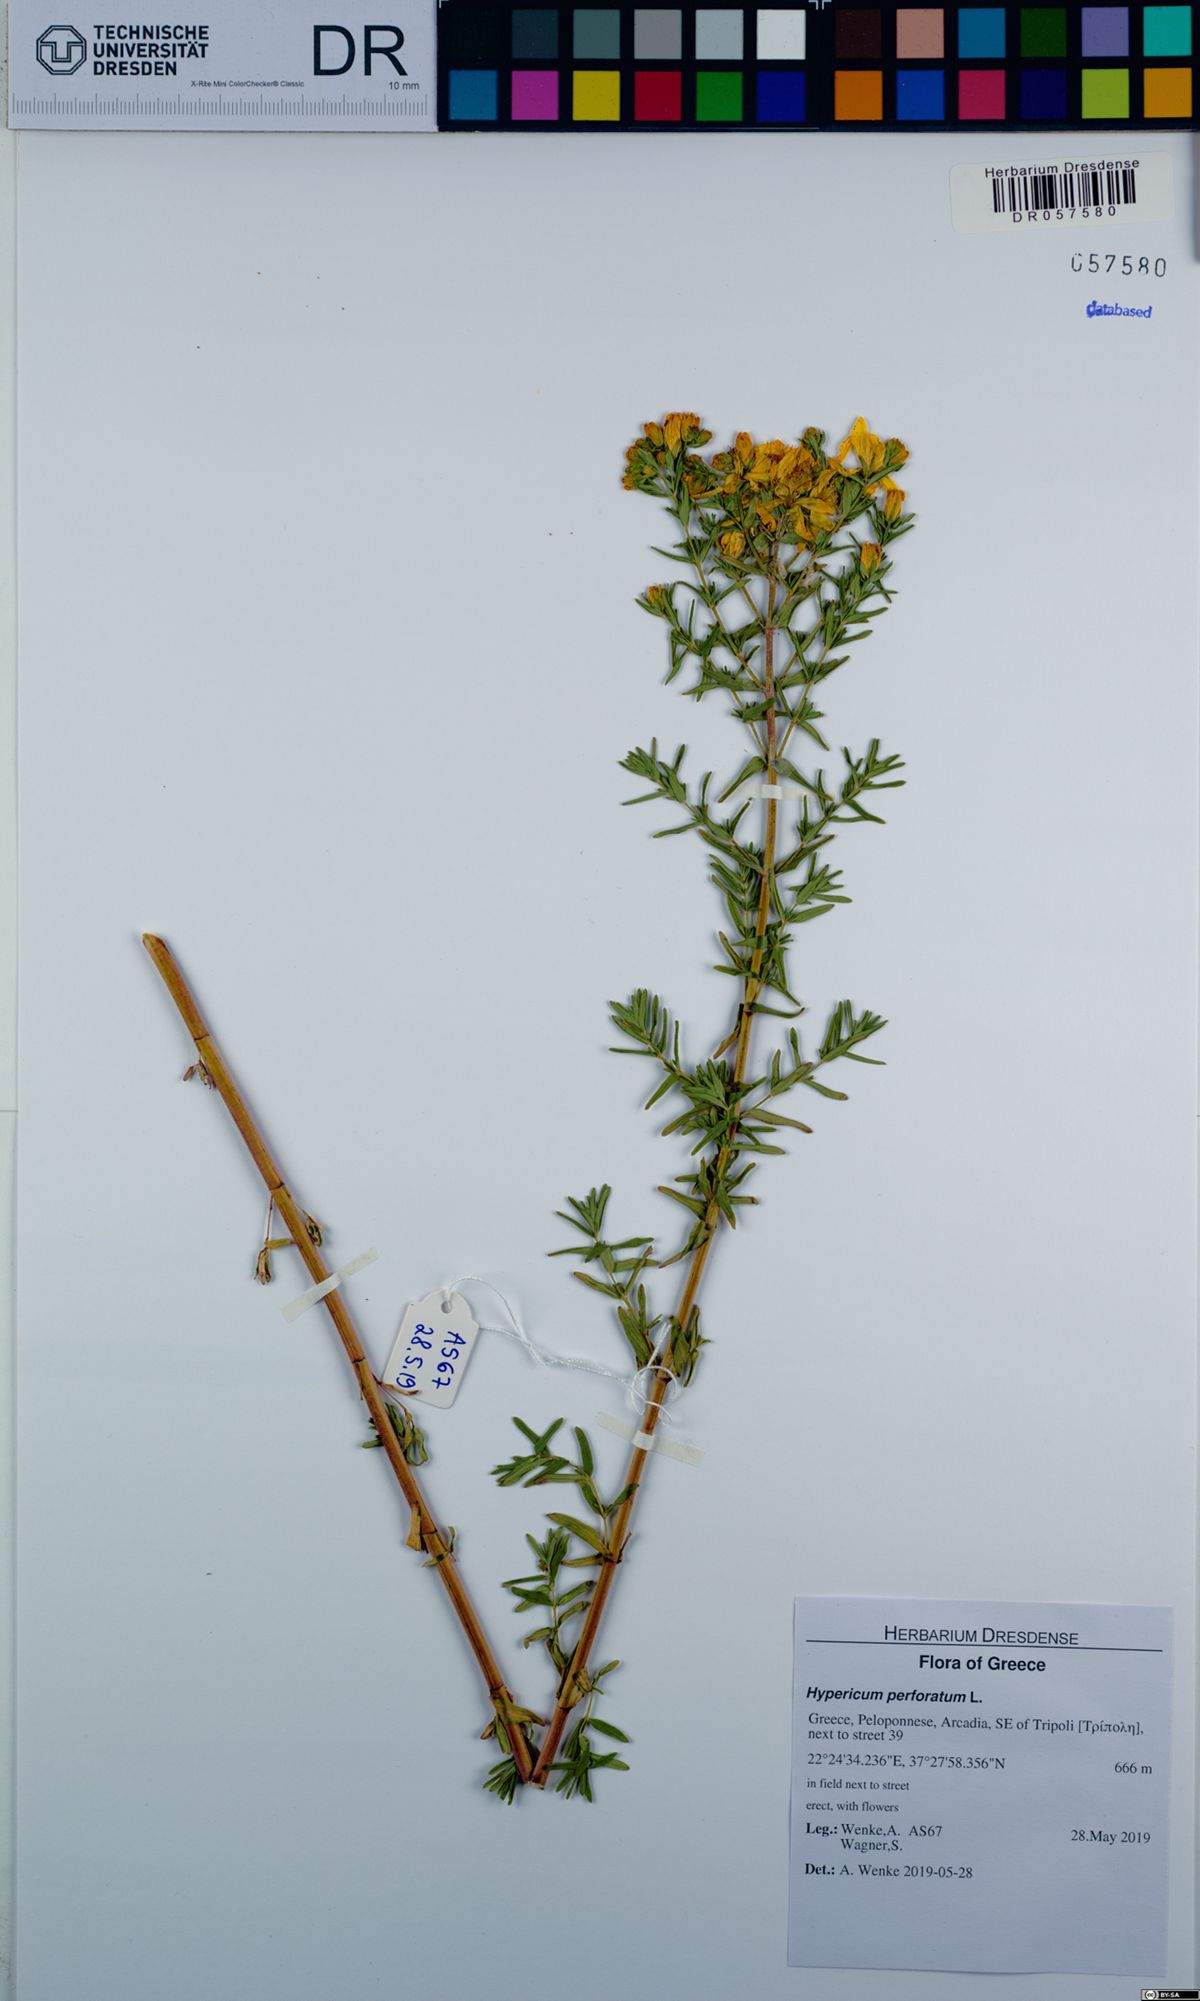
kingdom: Plantae
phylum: Tracheophyta
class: Magnoliopsida
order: Malpighiales
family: Hypericaceae
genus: Hypericum
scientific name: Hypericum perforatum
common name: Common st. johnswort
